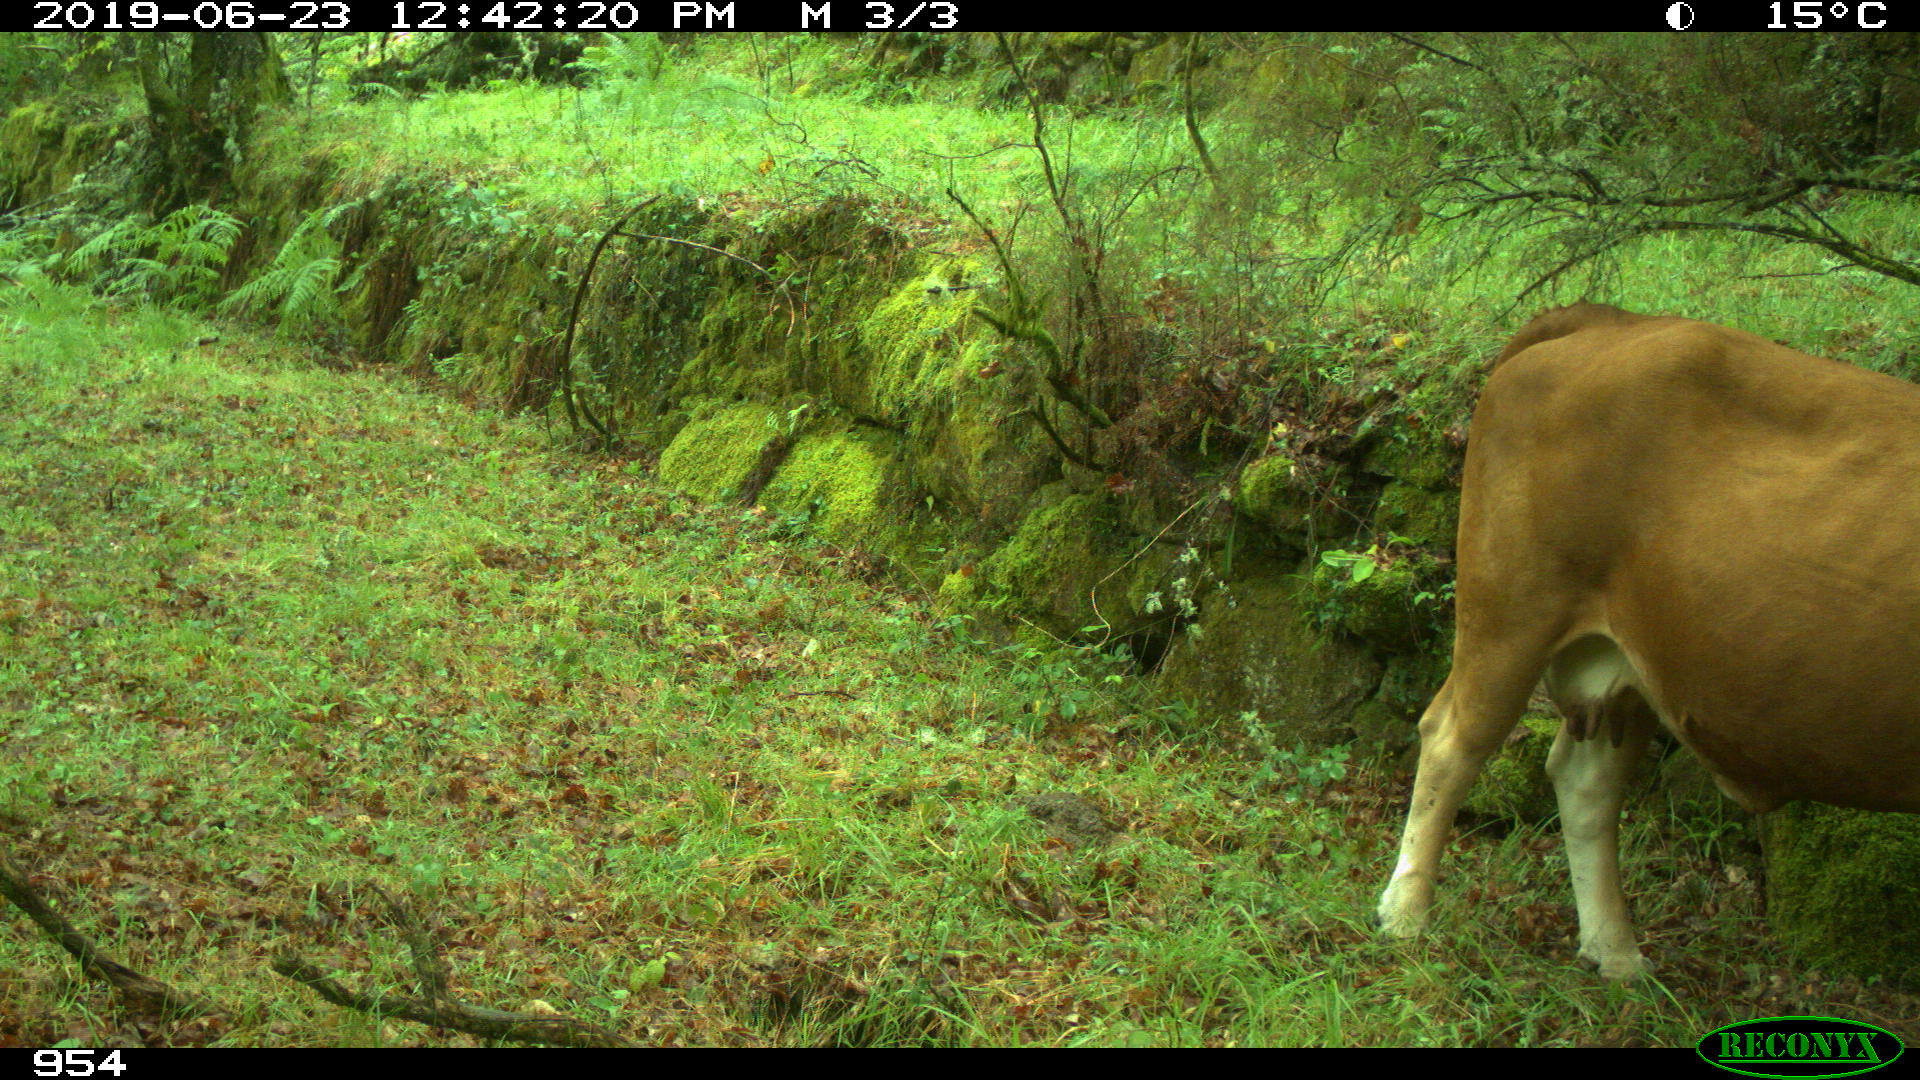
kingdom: Animalia
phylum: Chordata
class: Mammalia
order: Artiodactyla
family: Bovidae
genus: Bos
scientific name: Bos taurus
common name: Domesticated cattle
